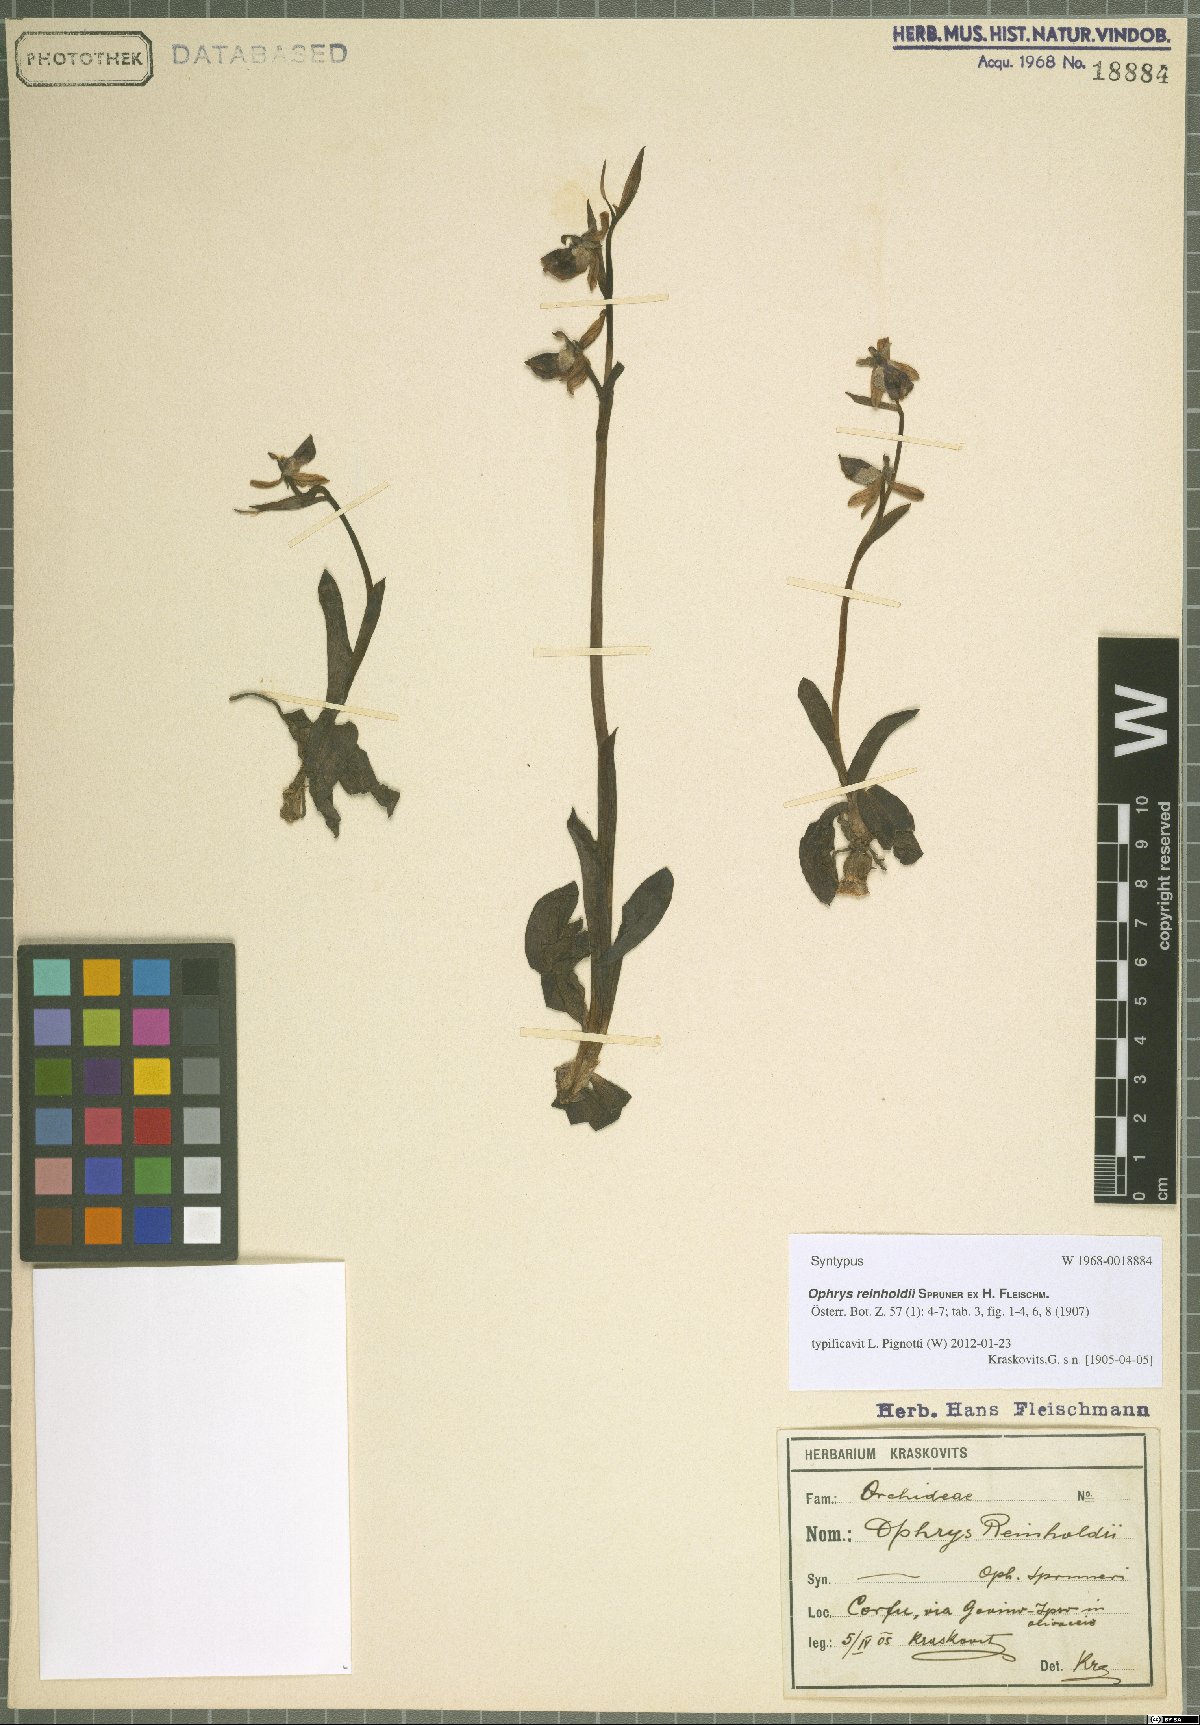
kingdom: Plantae
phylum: Tracheophyta
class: Liliopsida
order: Asparagales
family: Orchidaceae
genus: Ophrys
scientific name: Ophrys reinholdii
